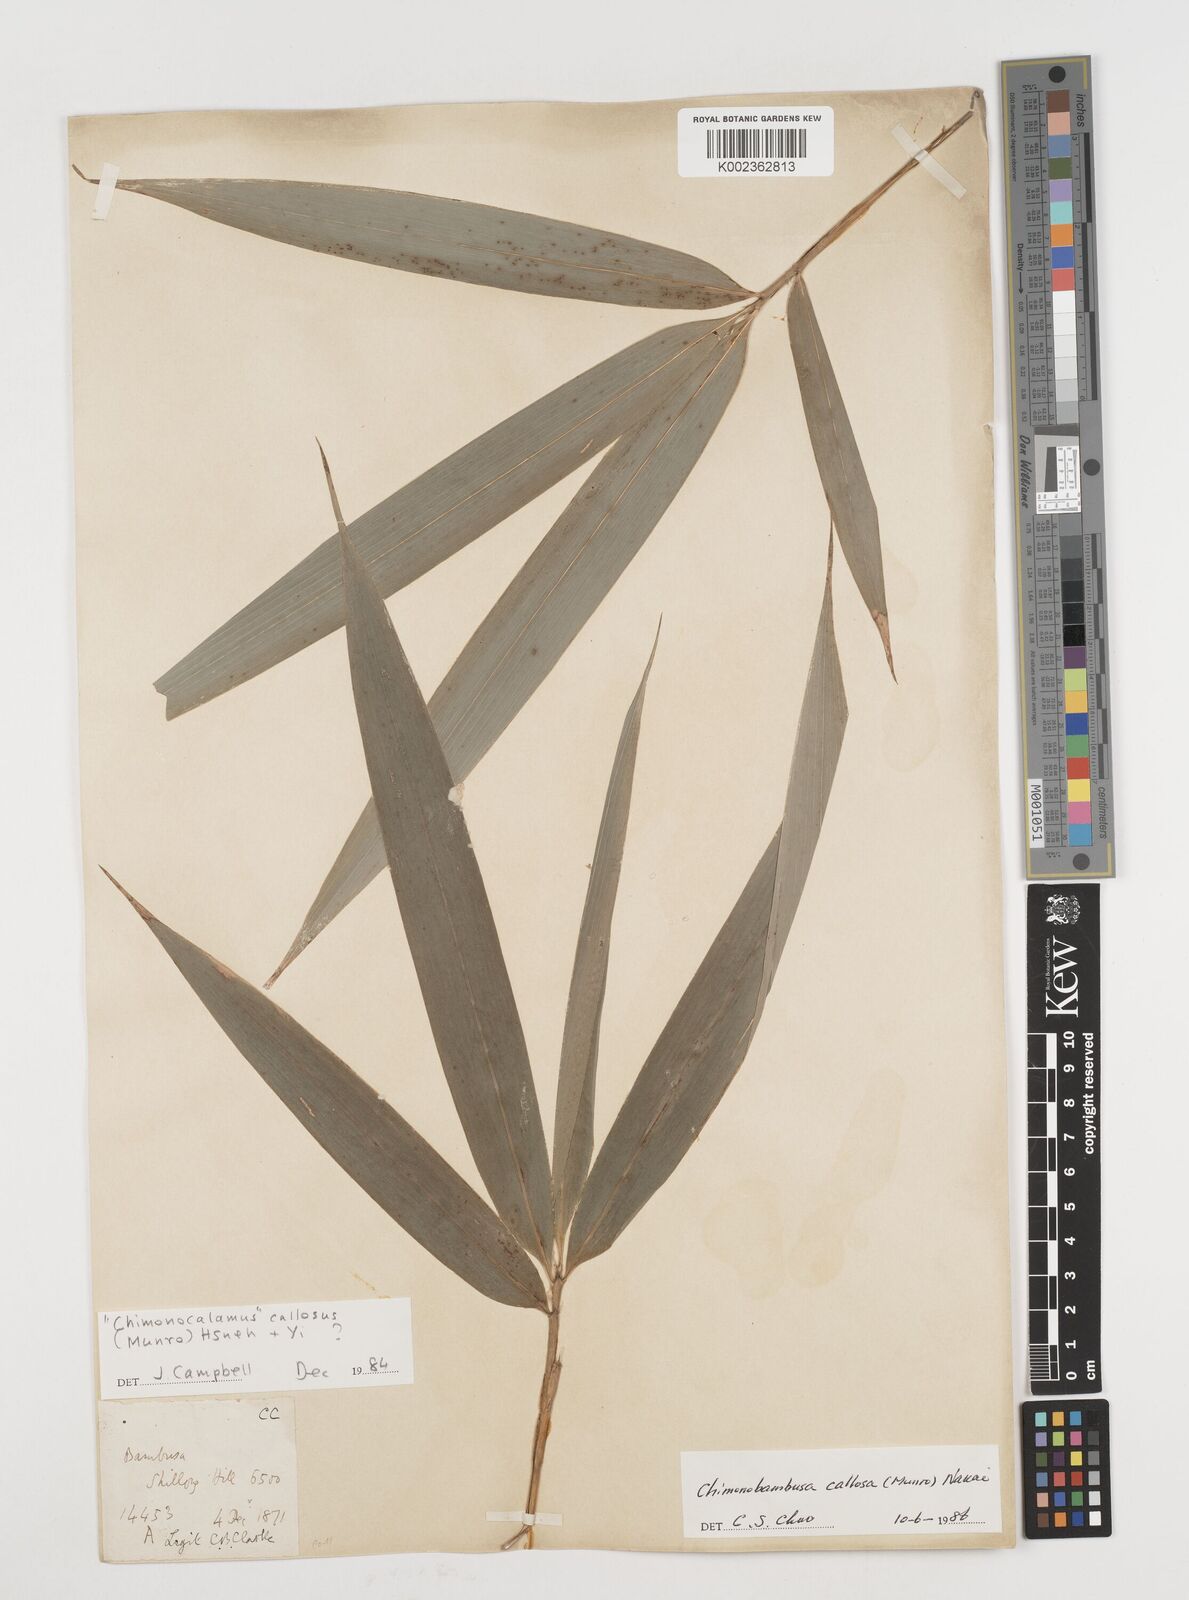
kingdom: Plantae
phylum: Tracheophyta
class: Liliopsida
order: Poales
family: Poaceae
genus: Chimonobambusa
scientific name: Chimonobambusa callosa
